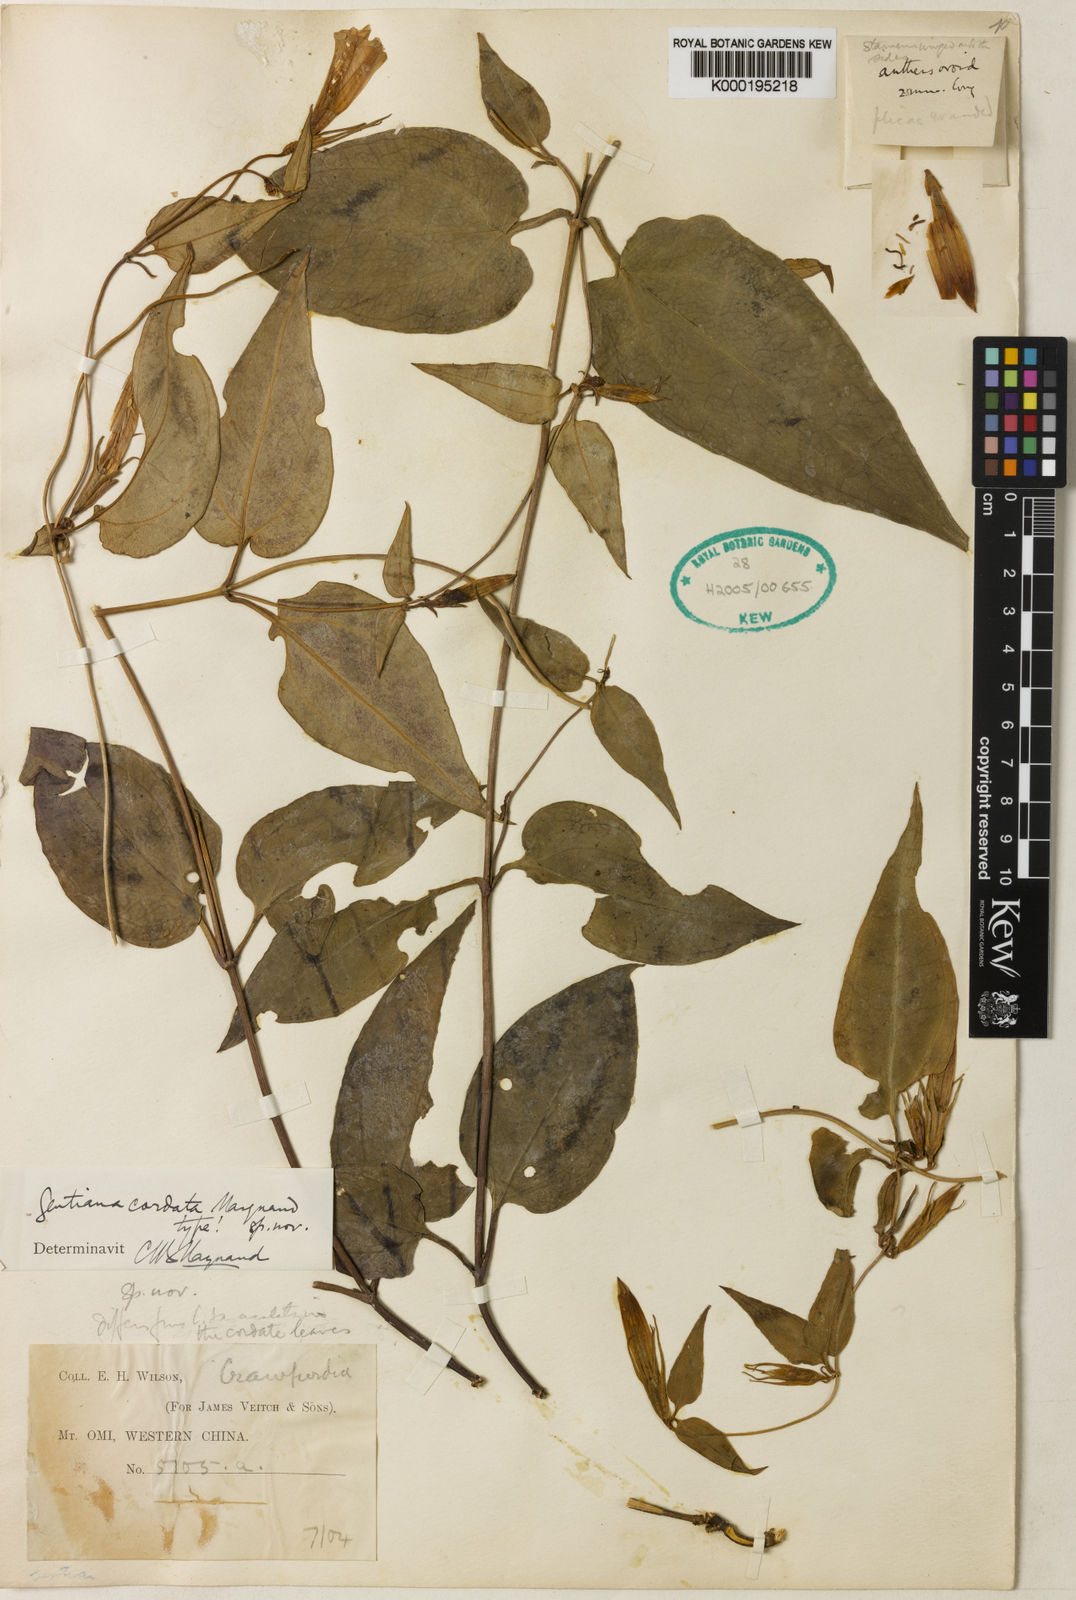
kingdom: Plantae
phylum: Tracheophyta
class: Magnoliopsida
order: Gentianales
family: Gentianaceae
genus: Tripterospermum
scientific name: Tripterospermum cordatum
